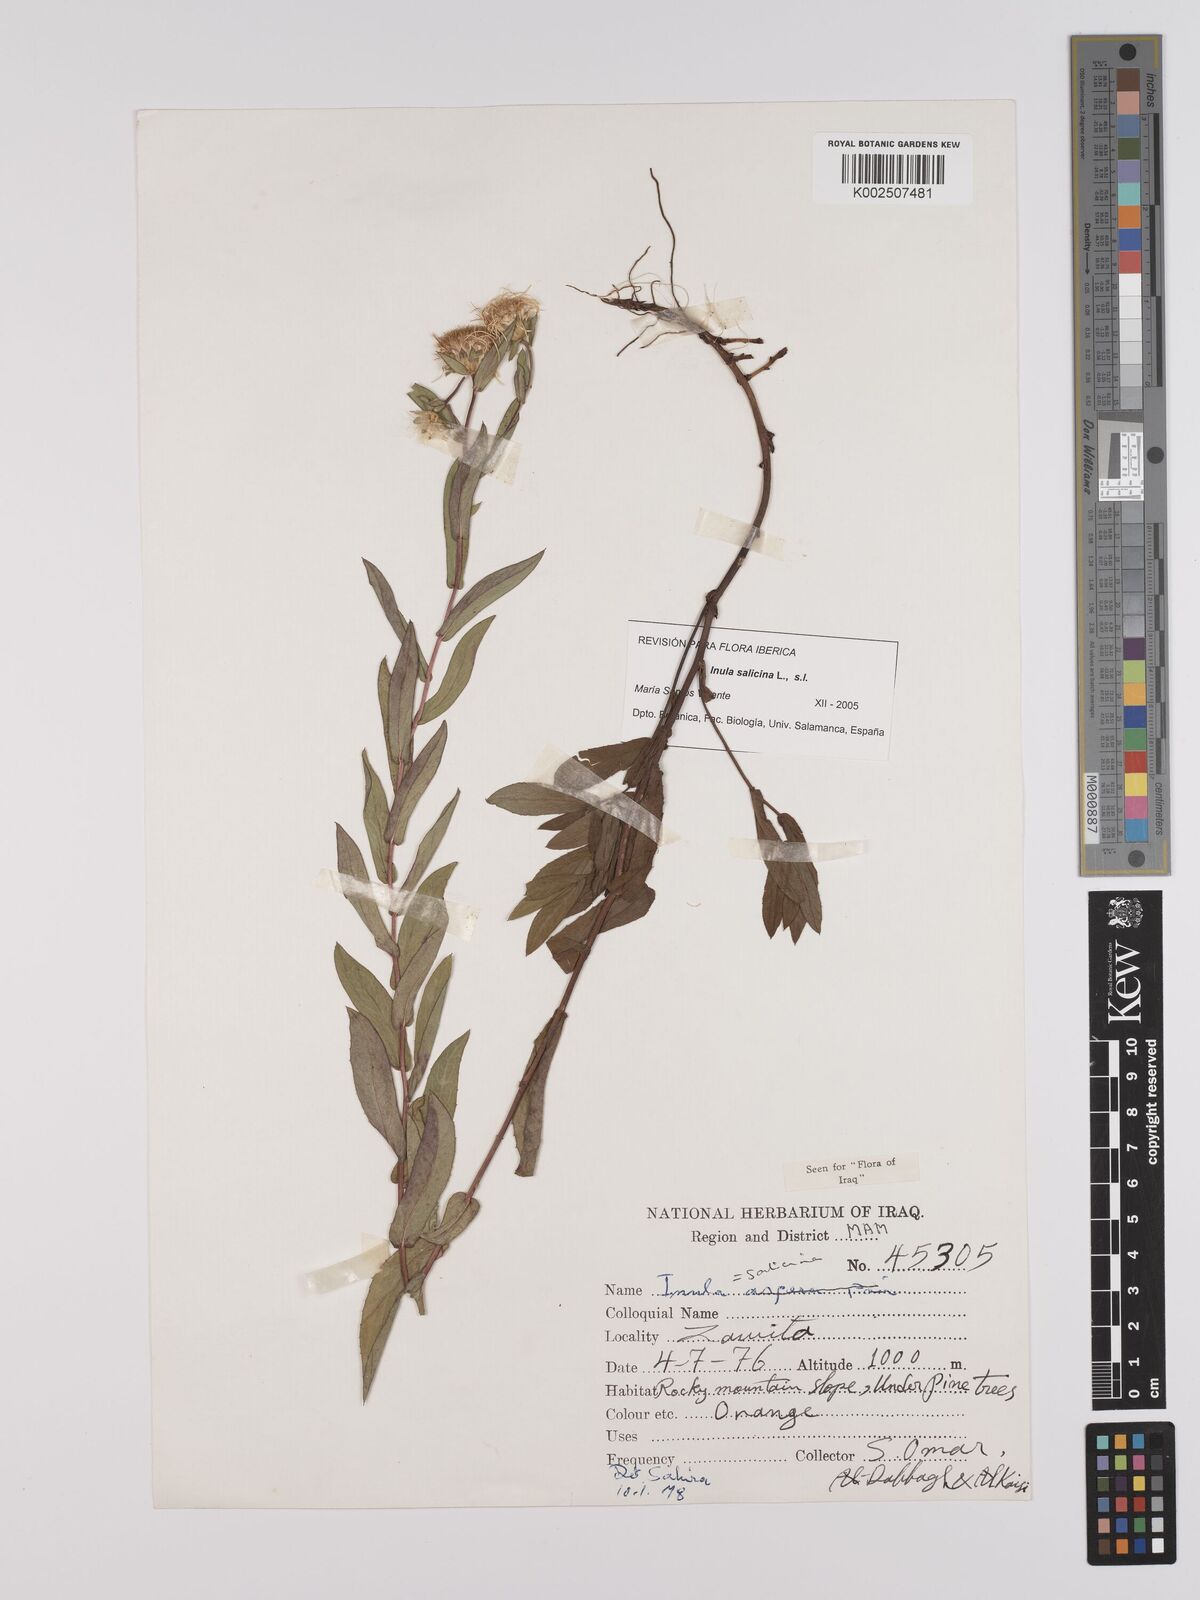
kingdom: Plantae
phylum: Tracheophyta
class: Magnoliopsida
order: Asterales
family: Asteraceae
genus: Pentanema
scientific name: Pentanema salicinum
